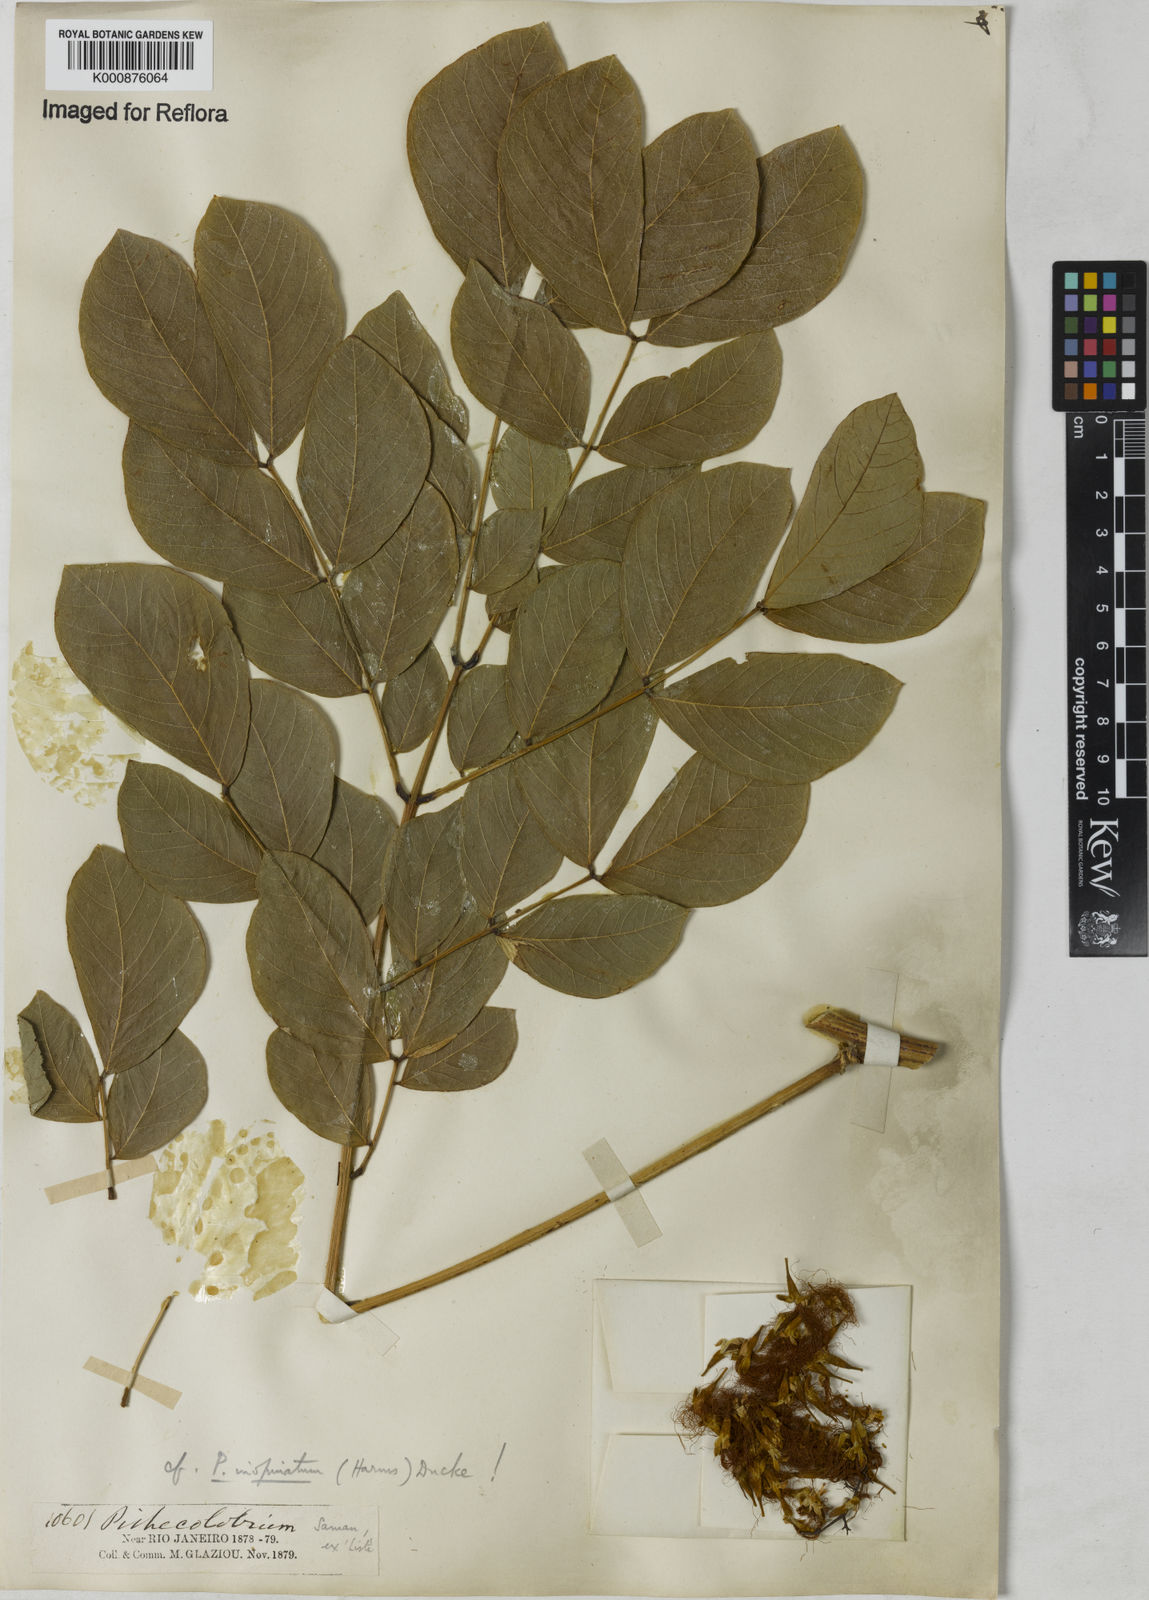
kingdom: Plantae
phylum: Tracheophyta
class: Magnoliopsida
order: Fabales
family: Fabaceae
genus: Samanea
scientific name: Samanea inopinata
